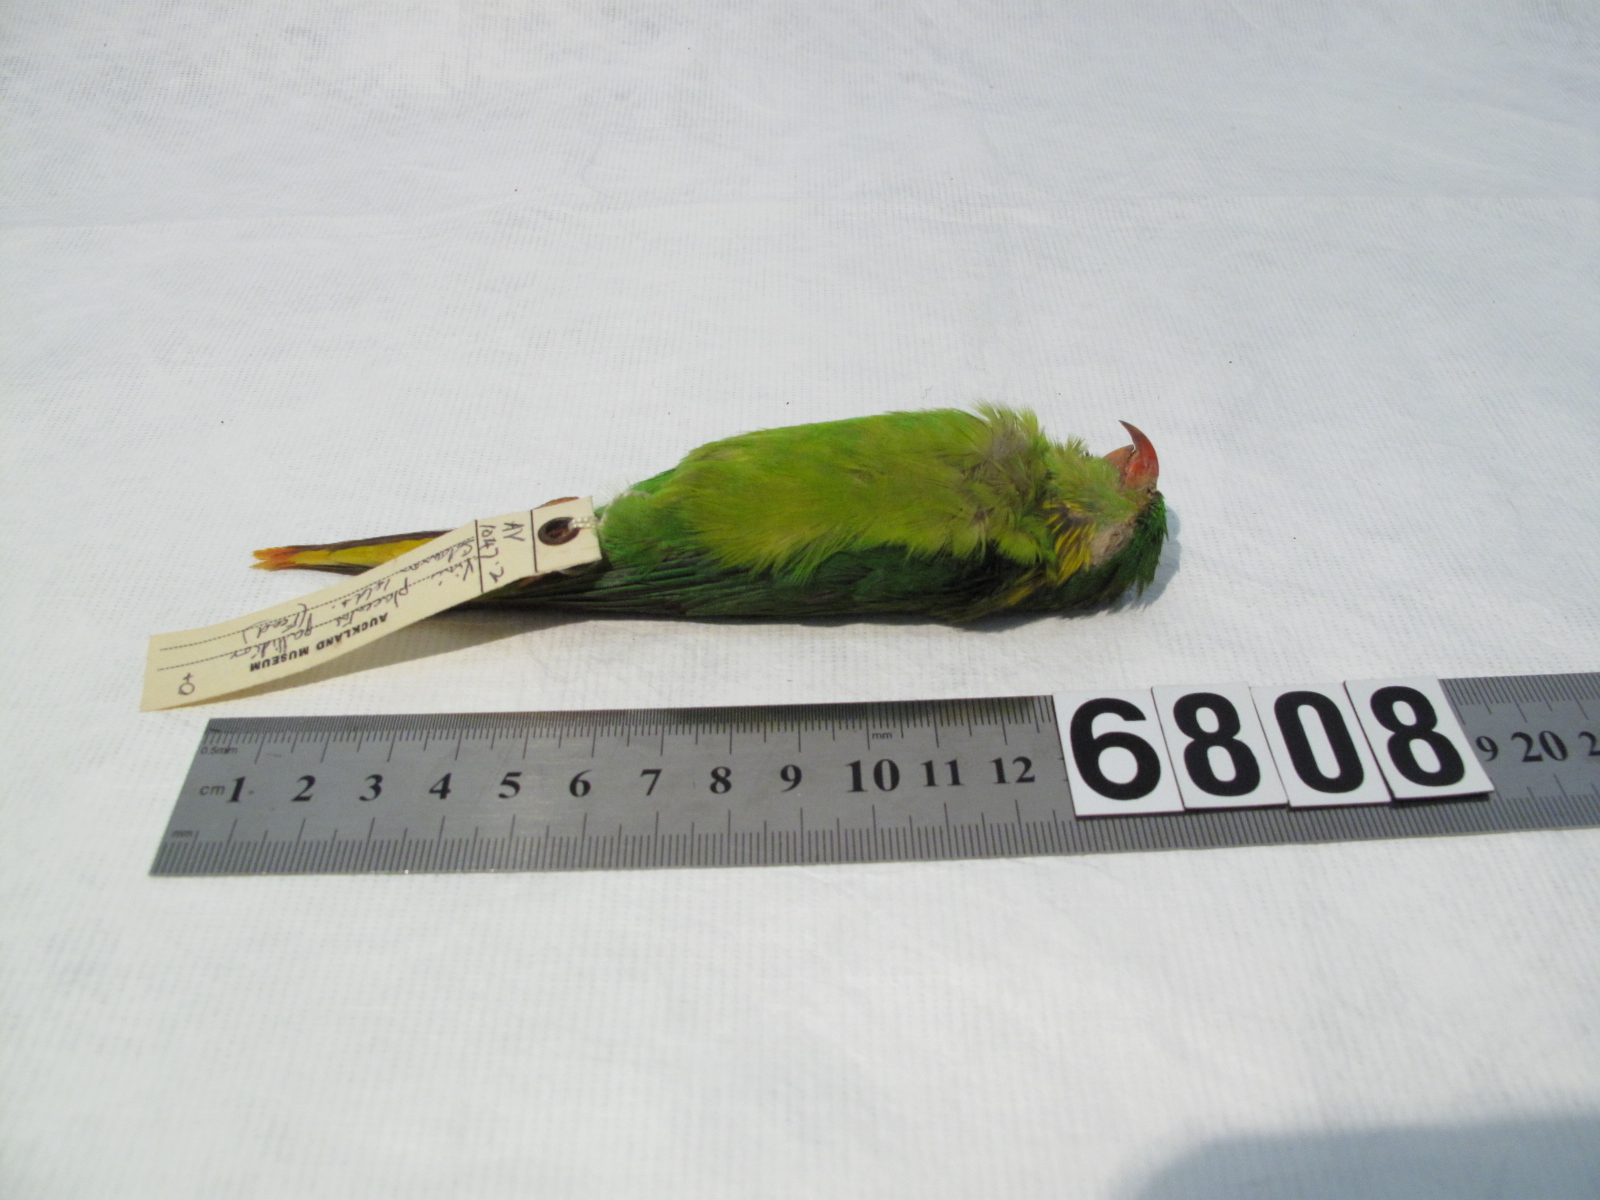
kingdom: Animalia
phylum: Chordata
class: Aves
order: Psittaciformes
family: Psittacidae
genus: Charmosyna
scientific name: Charmosyna placentis
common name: Red-flanked lorikeet
